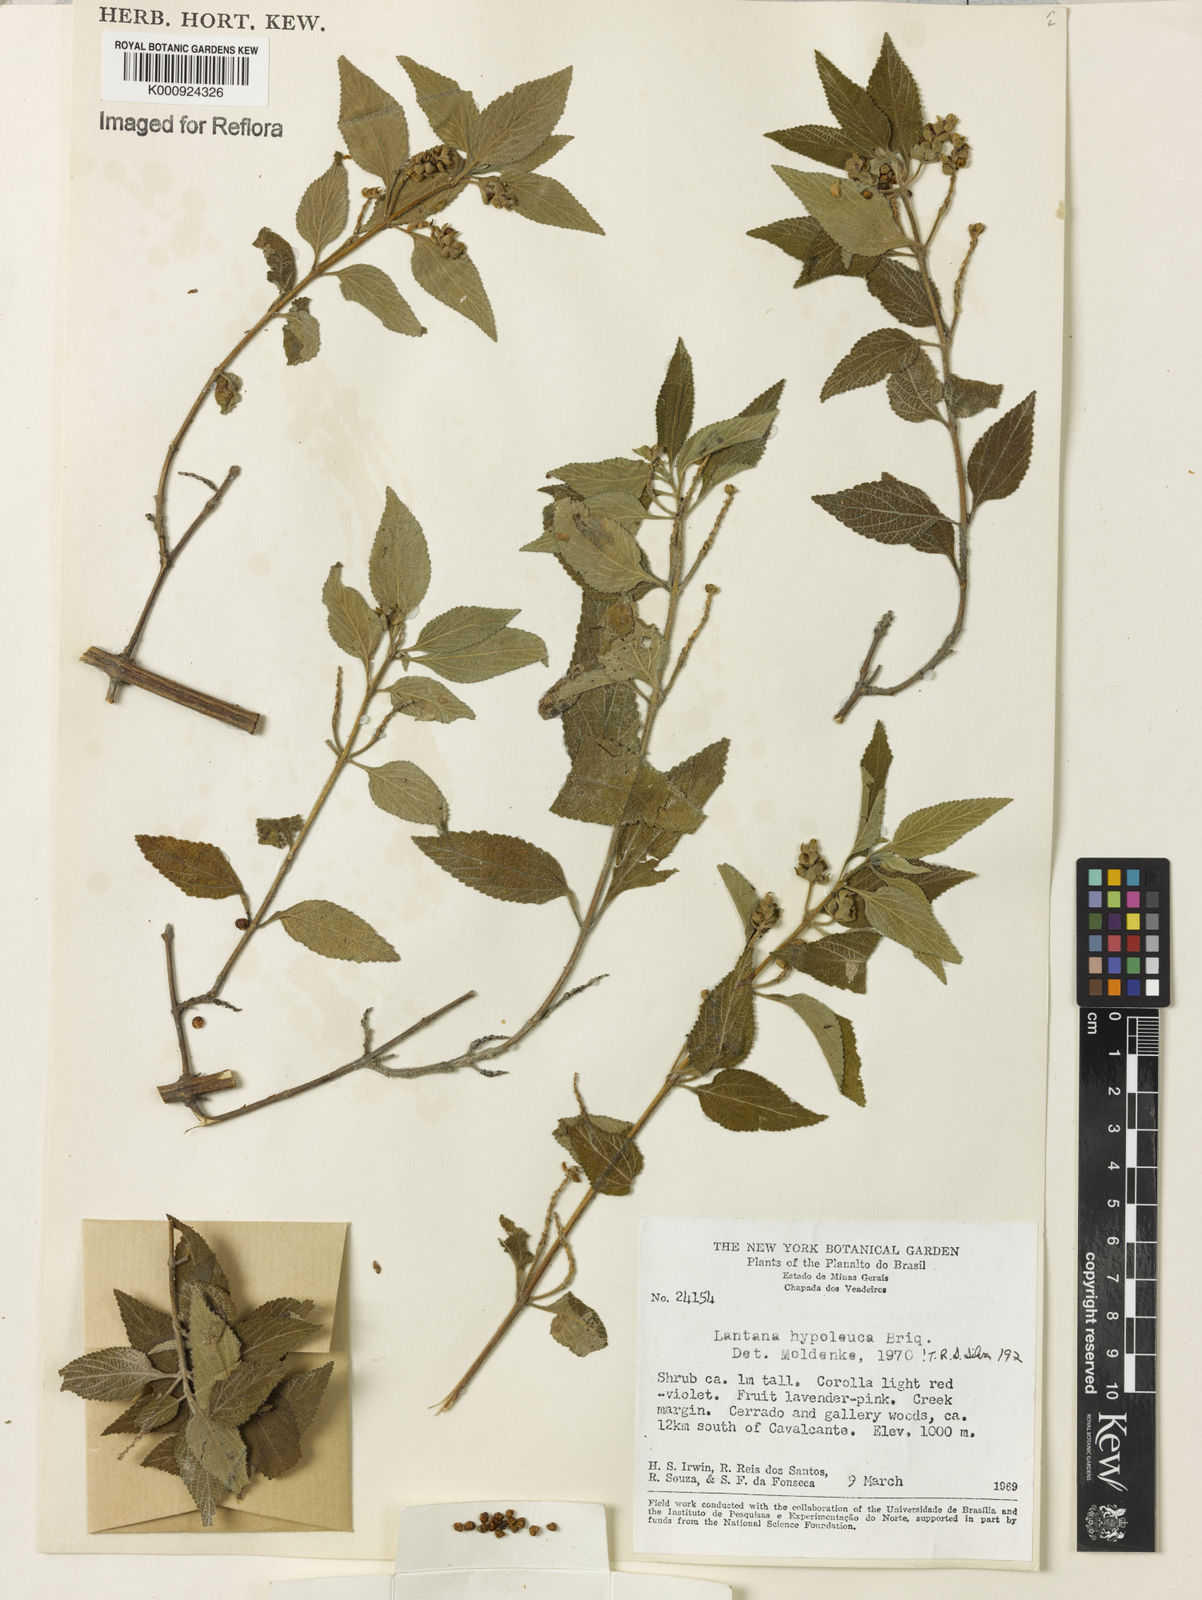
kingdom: Plantae
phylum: Tracheophyta
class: Magnoliopsida
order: Lamiales
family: Verbenaceae
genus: Lantana
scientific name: Lantana hypoleuca
